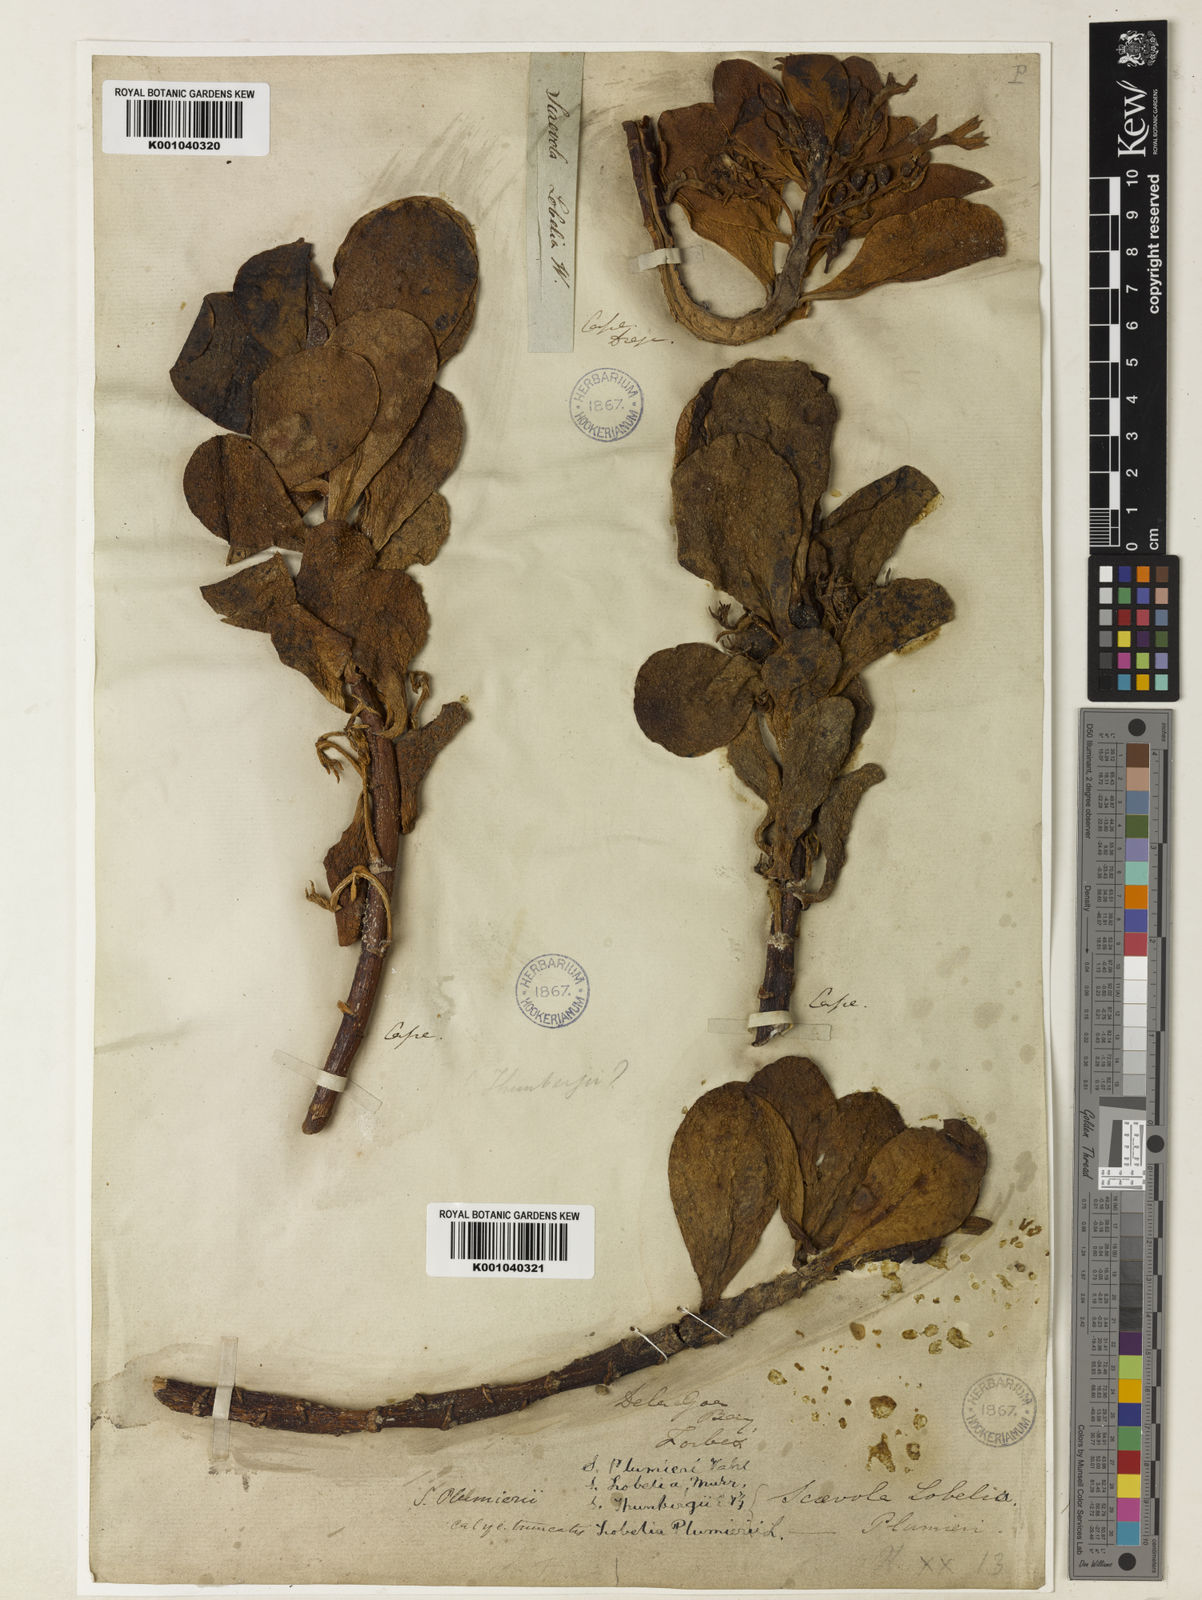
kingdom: Plantae
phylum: Tracheophyta
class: Magnoliopsida
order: Asterales
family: Goodeniaceae
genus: Scaevola
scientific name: Scaevola plumieri
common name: Gull feed
